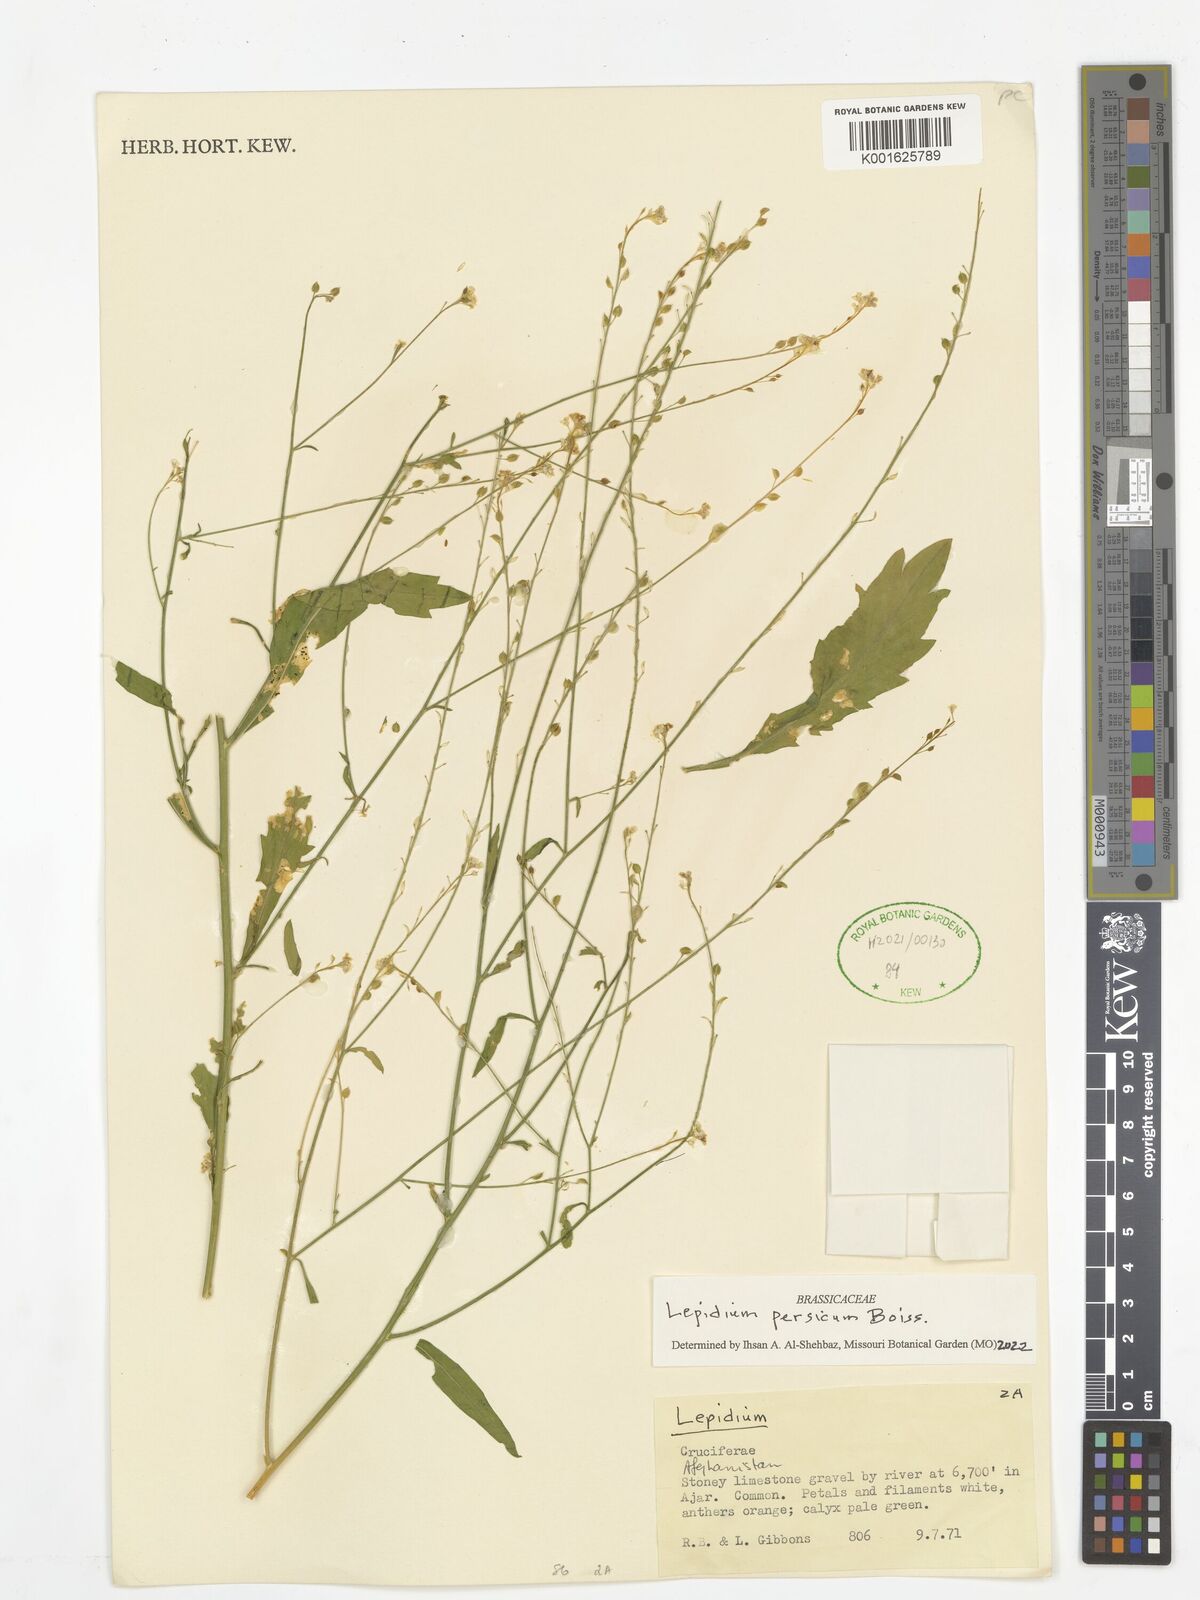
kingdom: Plantae
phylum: Tracheophyta
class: Magnoliopsida
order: Brassicales
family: Brassicaceae
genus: Lepidium
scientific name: Lepidium persicum
